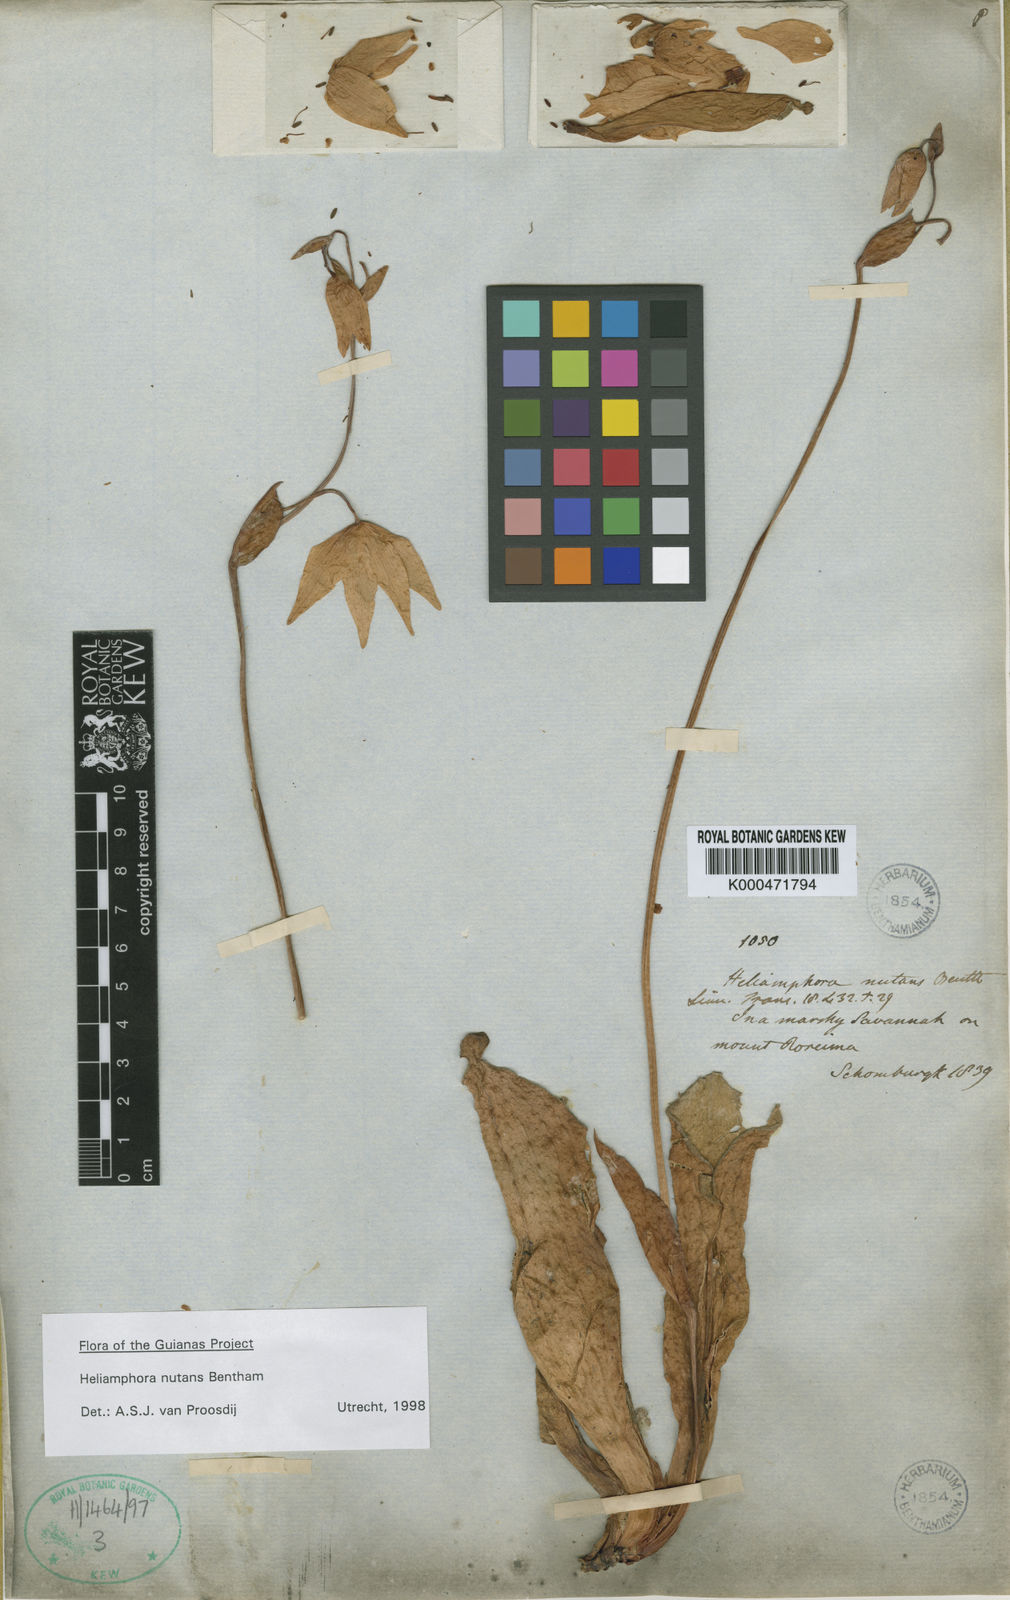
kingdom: Plantae
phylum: Tracheophyta
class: Magnoliopsida
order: Ericales
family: Sarraceniaceae
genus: Heliamphora
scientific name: Heliamphora nutans
